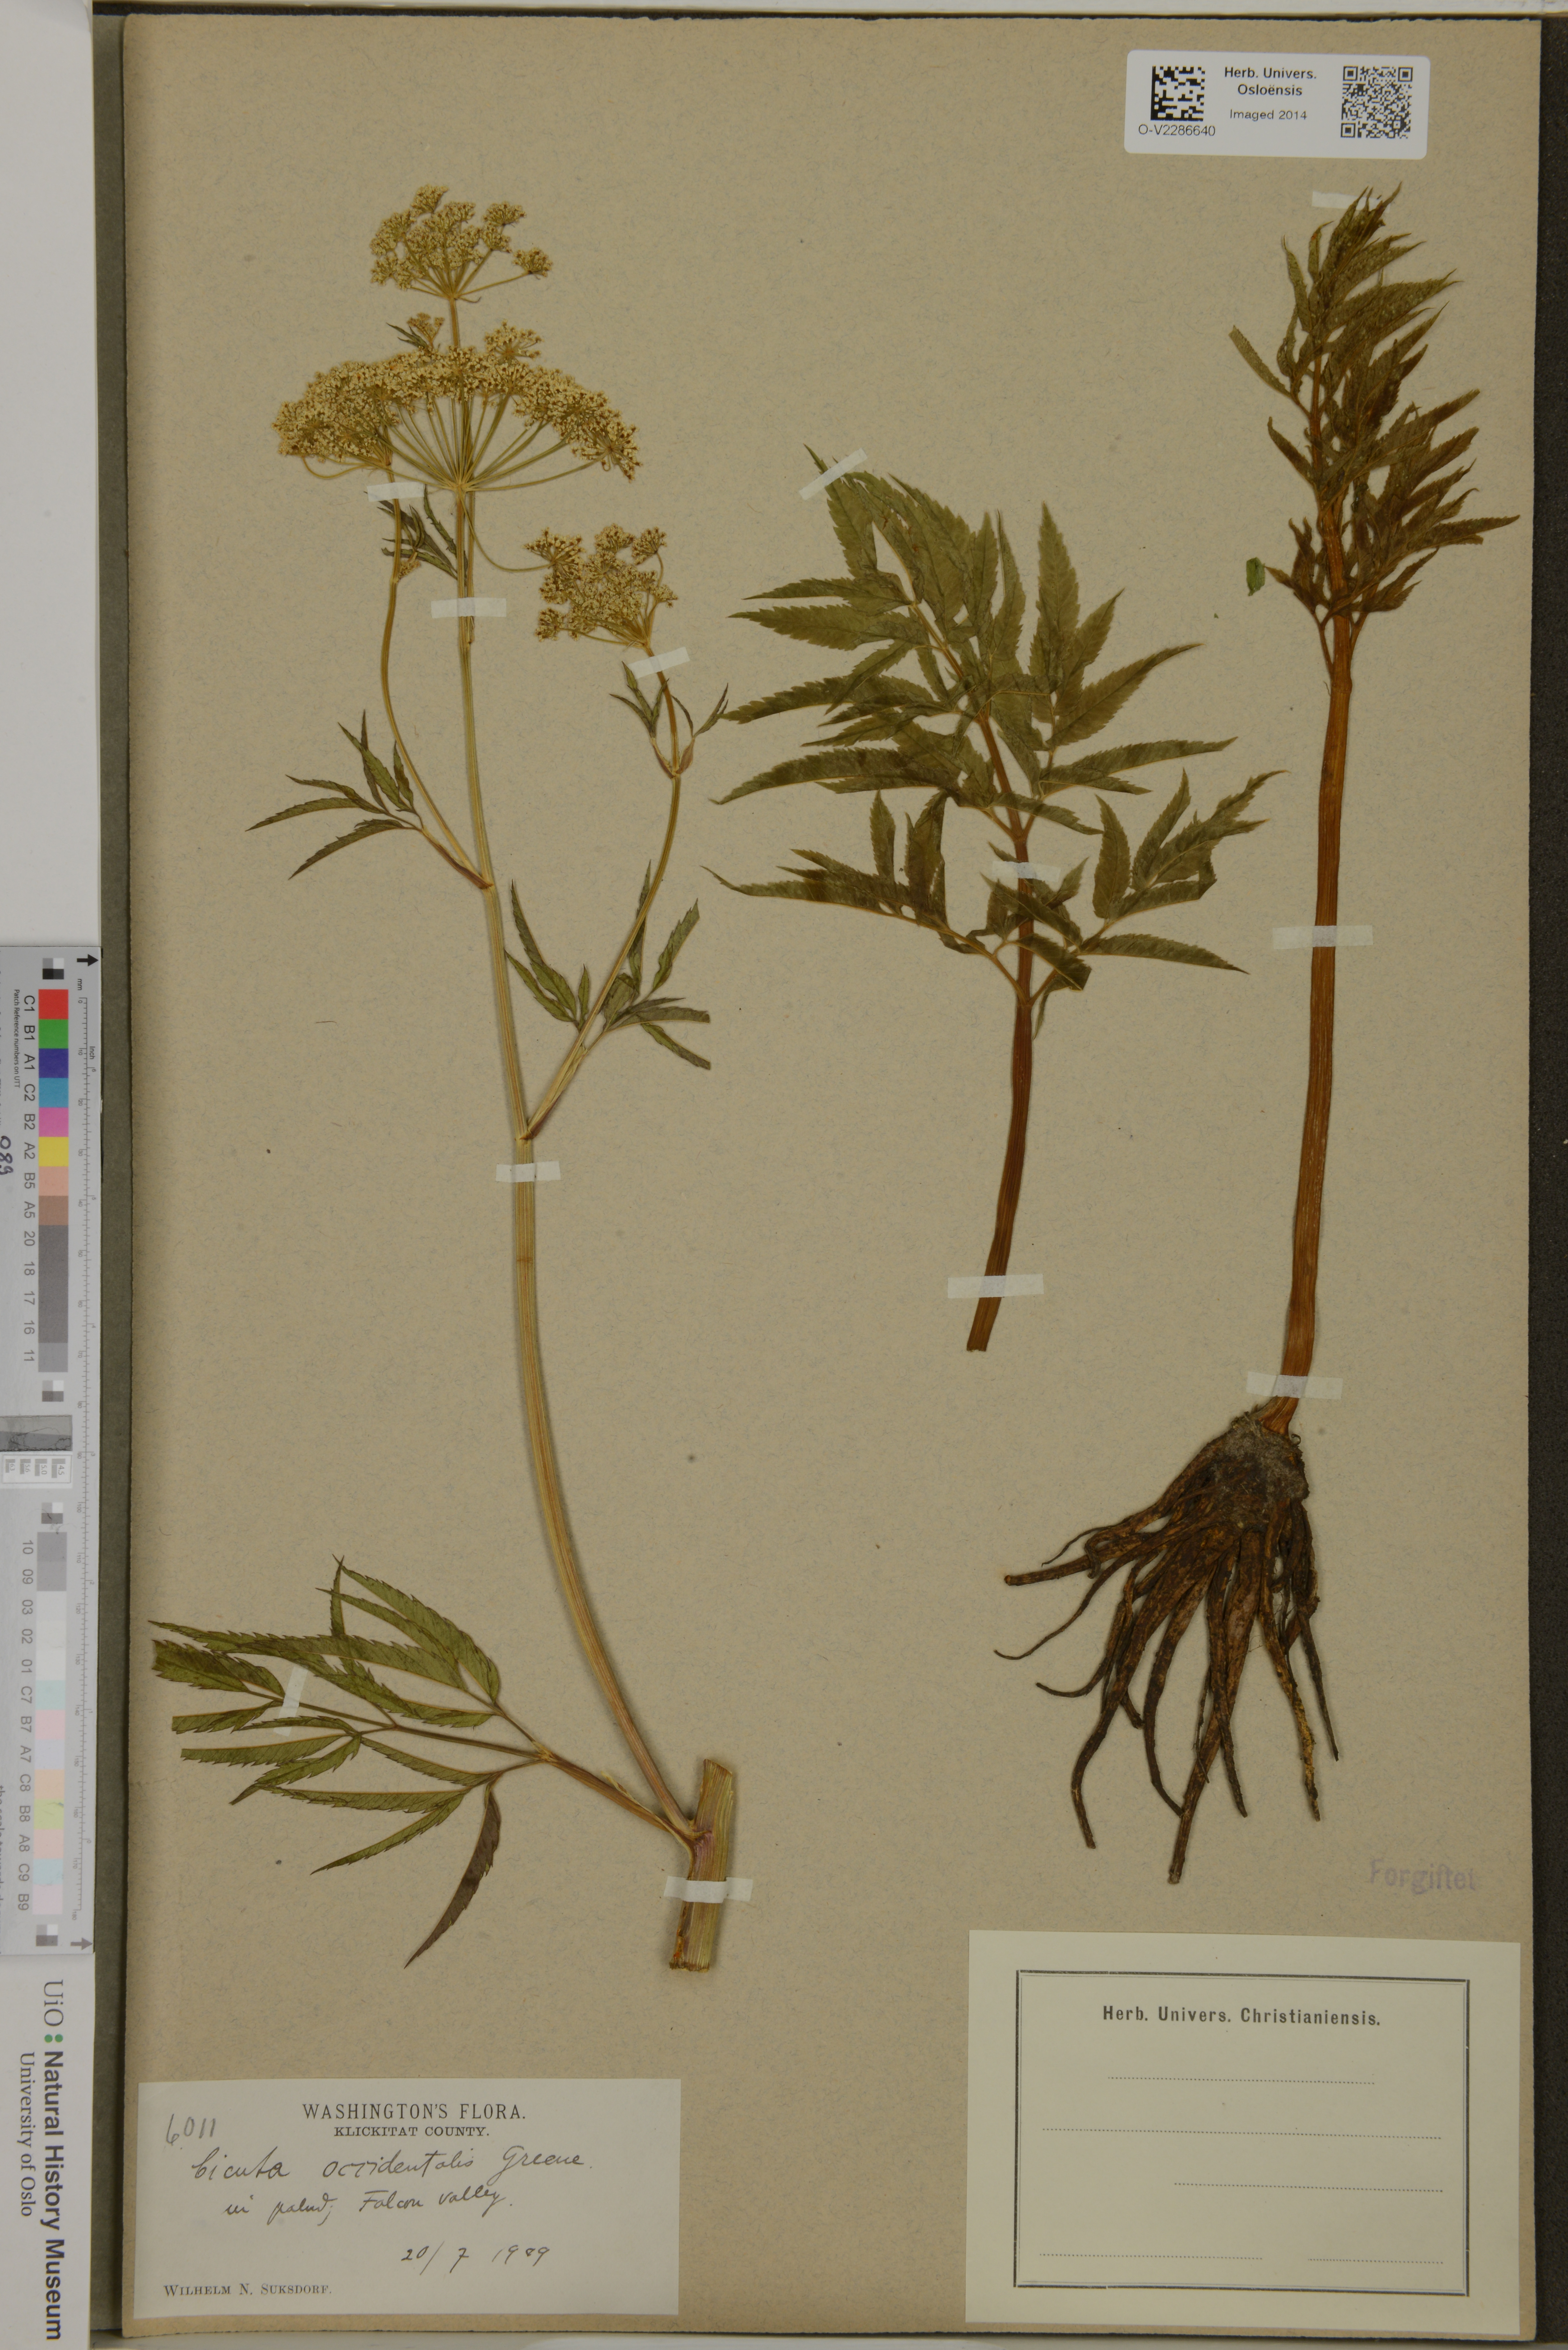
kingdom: Plantae
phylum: Tracheophyta
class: Magnoliopsida
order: Apiales
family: Apiaceae
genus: Cicuta
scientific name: Cicuta douglasii
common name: Western water-hemlock
